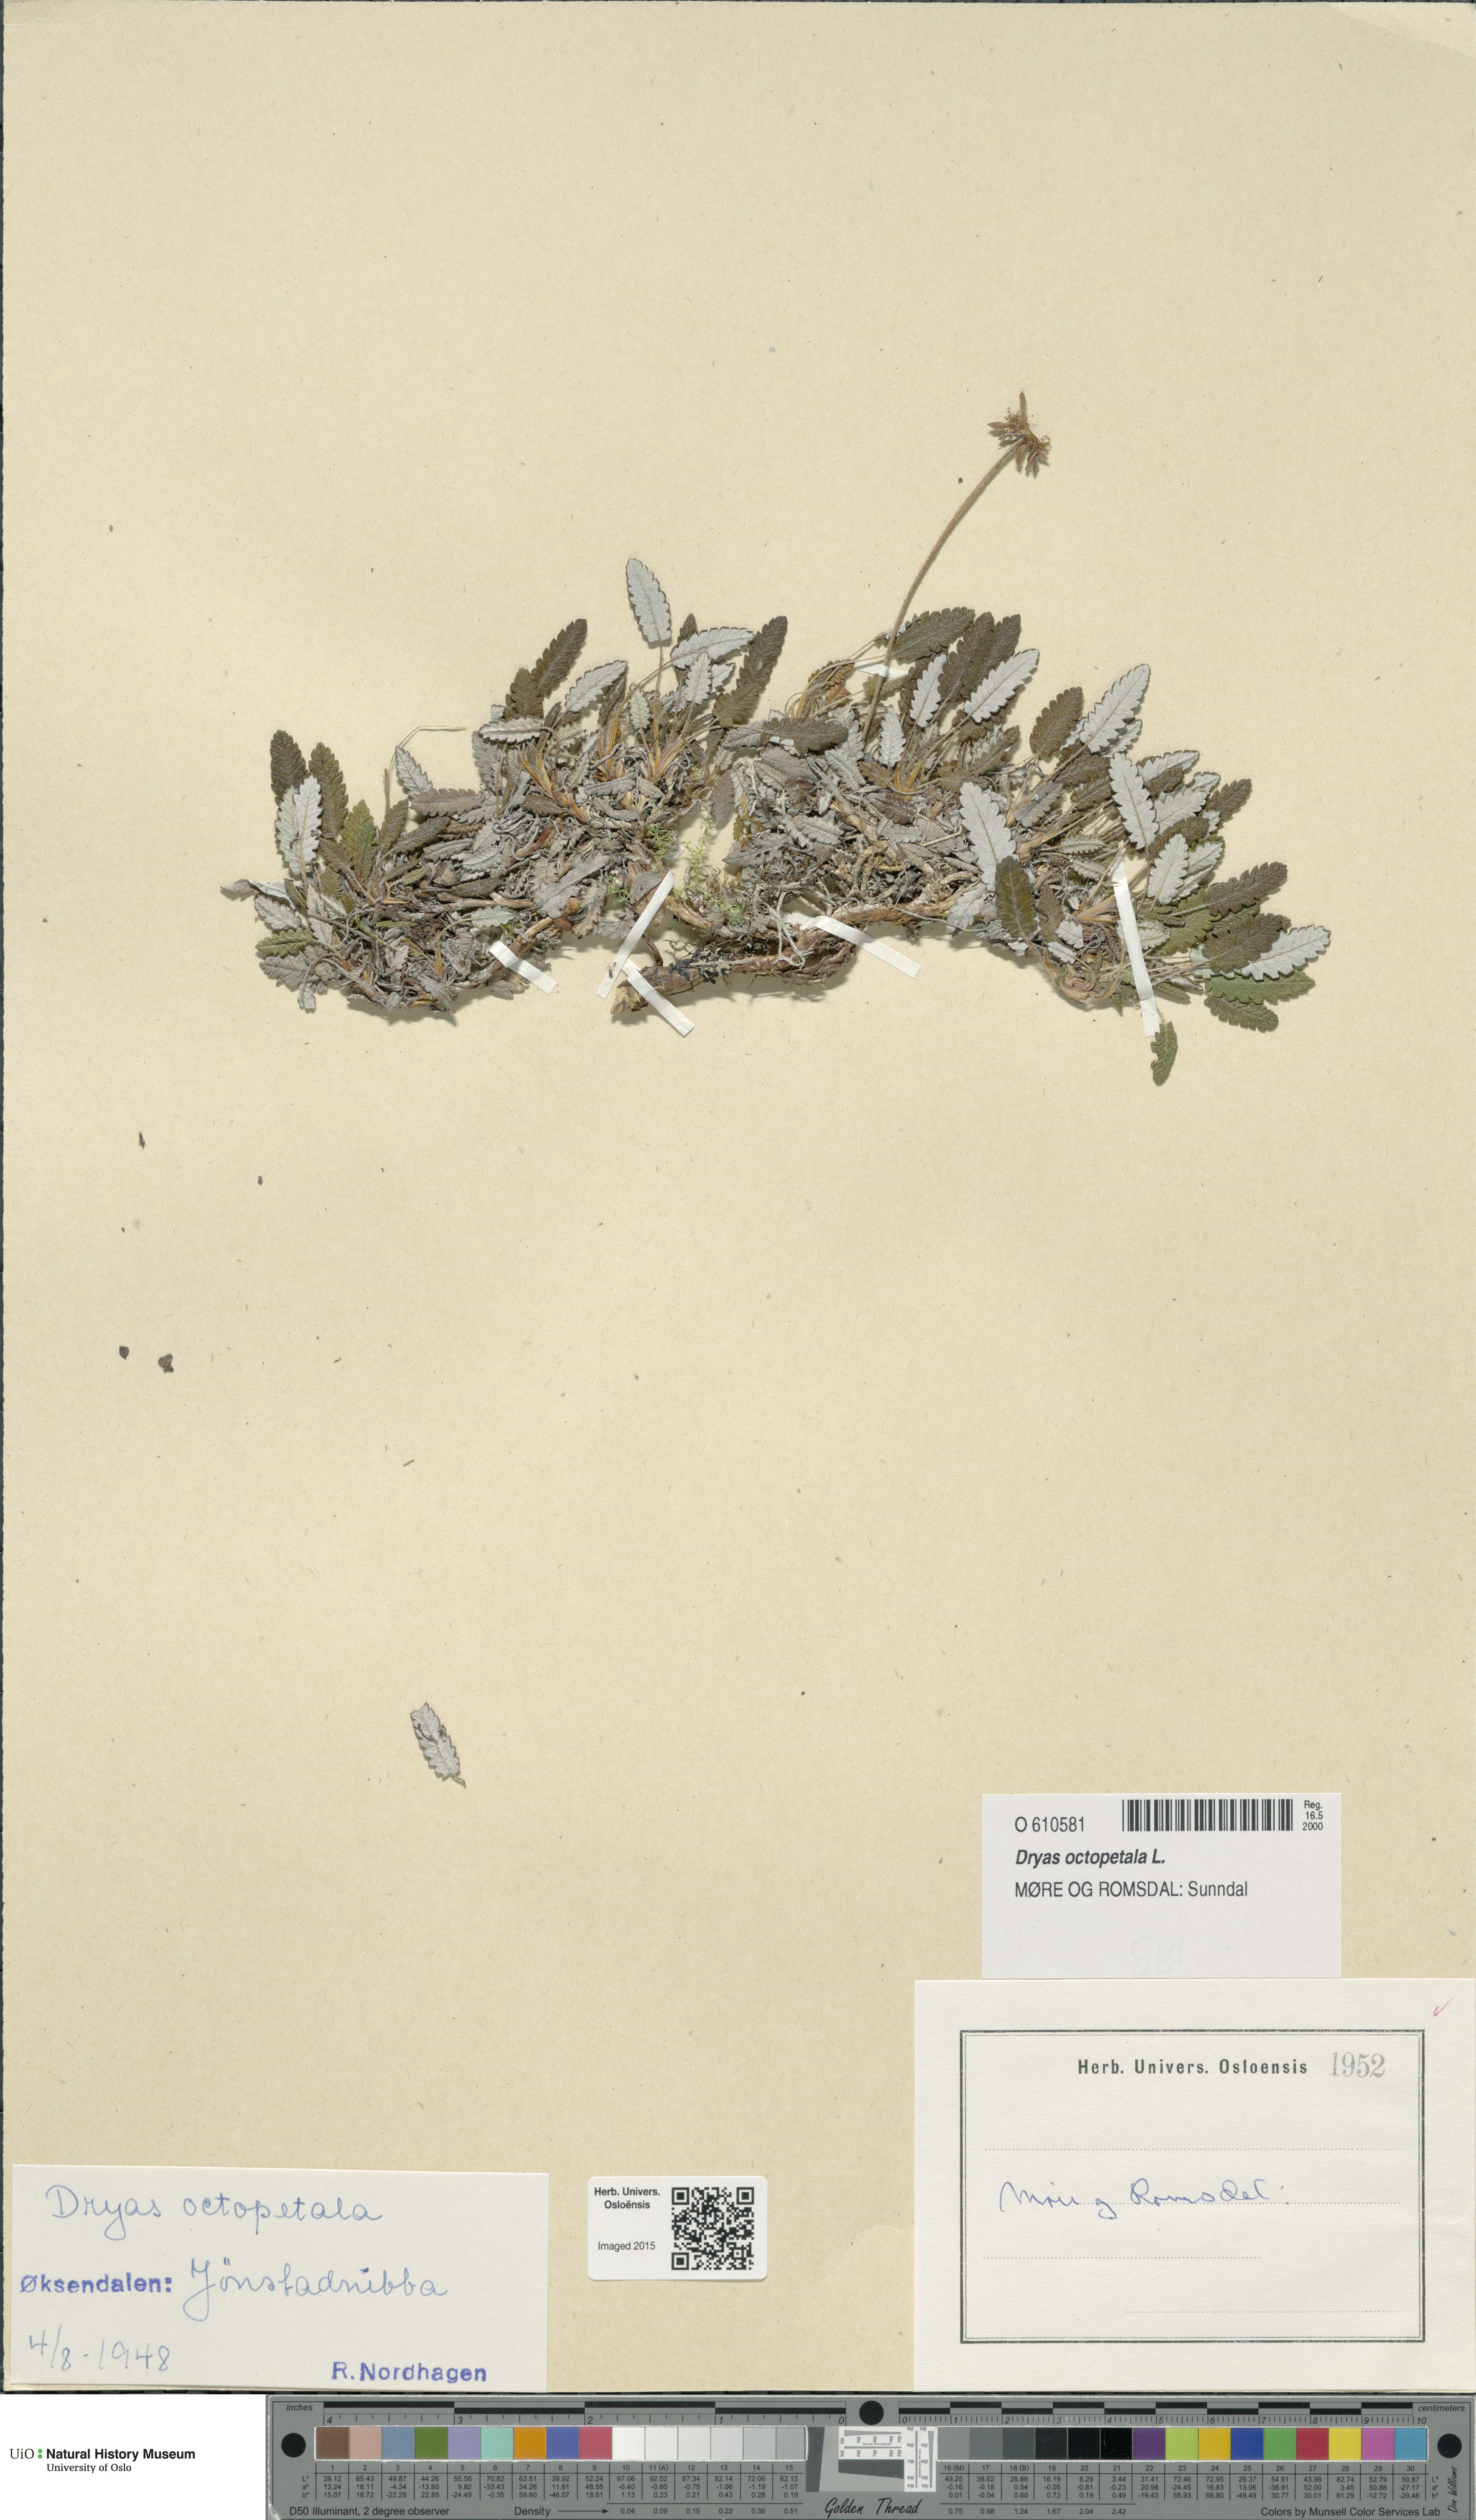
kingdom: Plantae
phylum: Tracheophyta
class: Magnoliopsida
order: Rosales
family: Rosaceae
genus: Dryas
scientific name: Dryas octopetala
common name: Eight-petal mountain-avens
